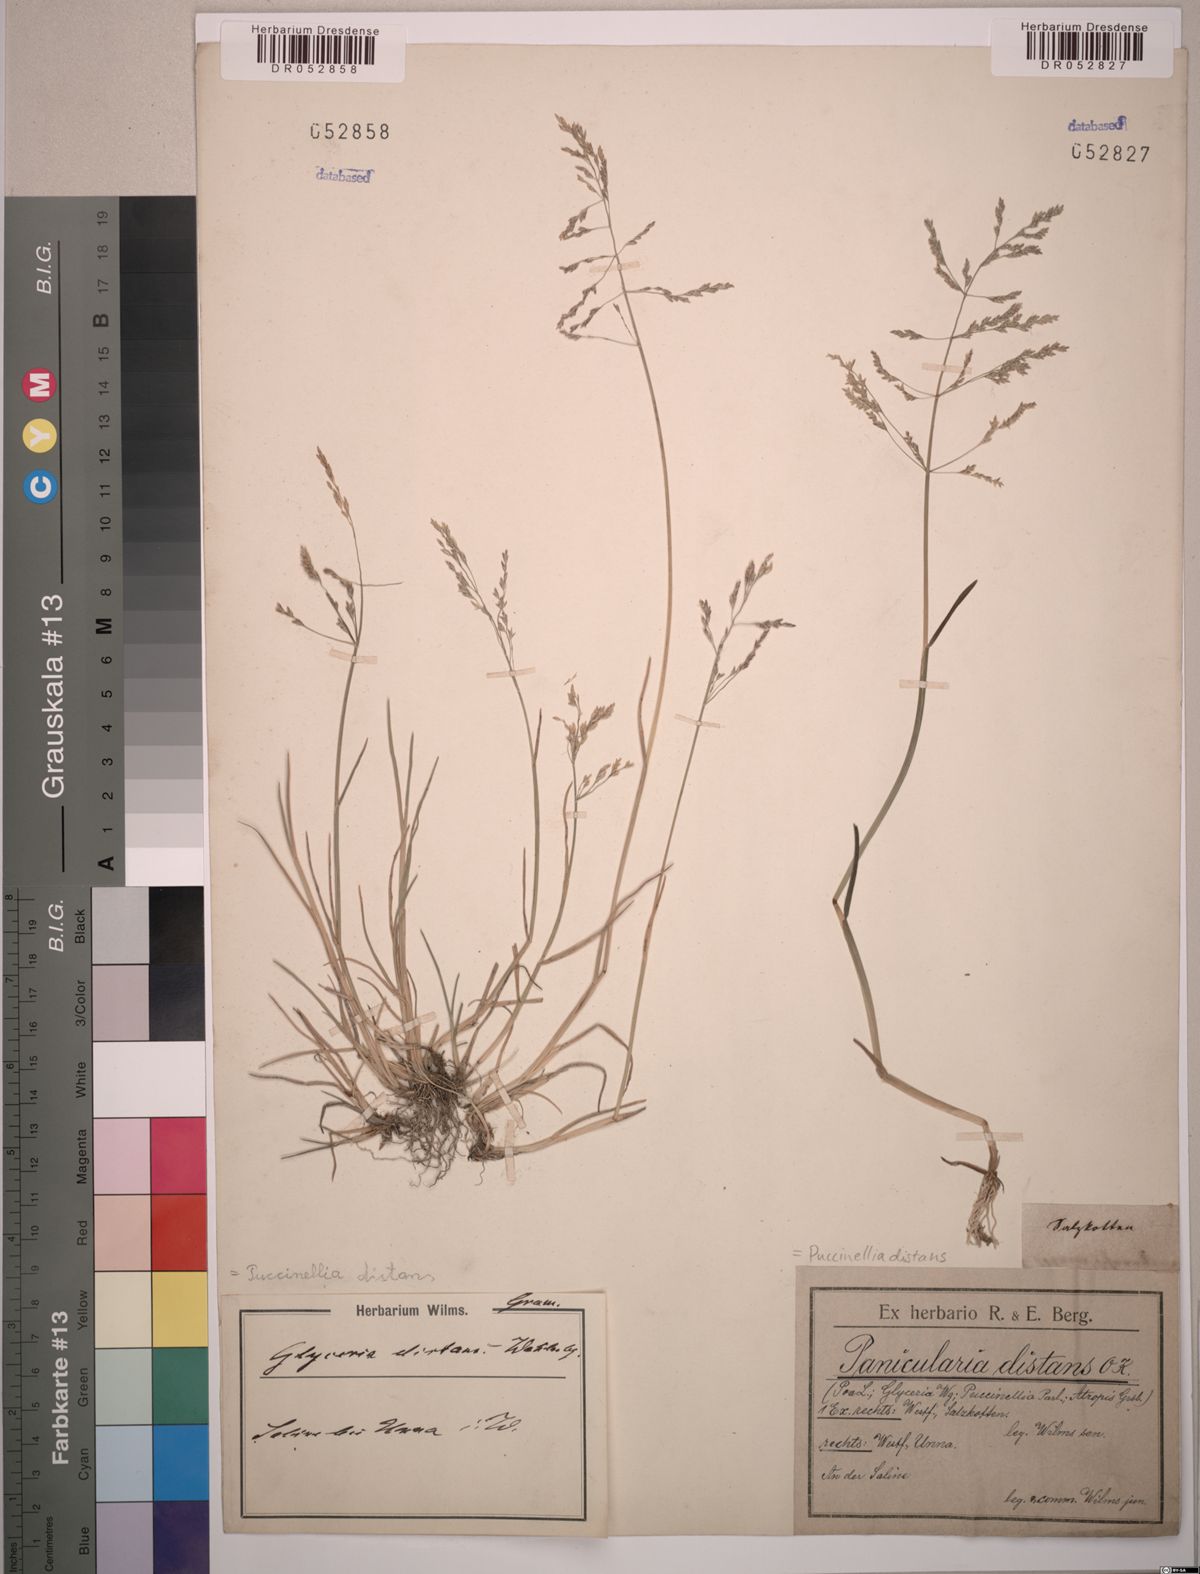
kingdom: Plantae
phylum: Tracheophyta
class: Liliopsida
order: Poales
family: Poaceae
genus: Puccinellia
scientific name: Puccinellia distans
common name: Weeping alkaligrass
